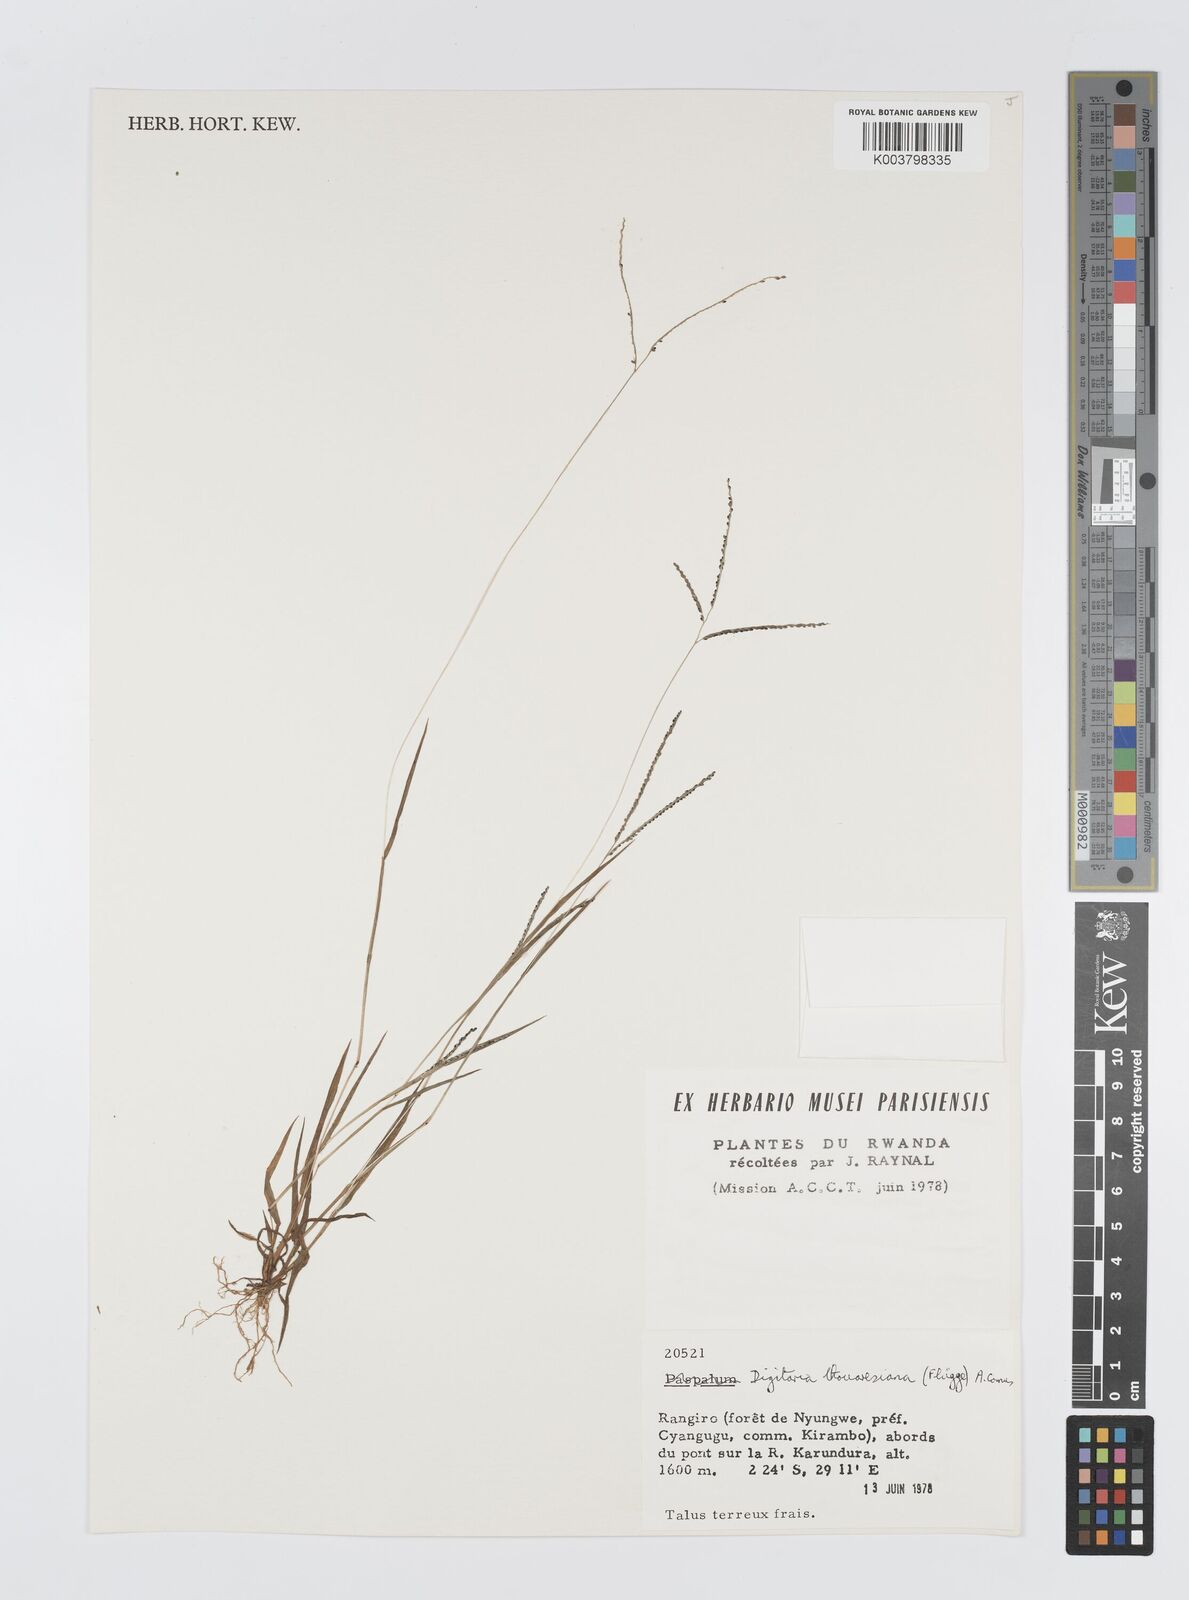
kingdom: Plantae
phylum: Tracheophyta
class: Liliopsida
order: Poales
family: Poaceae
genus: Digitaria
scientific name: Digitaria thouarsiana
